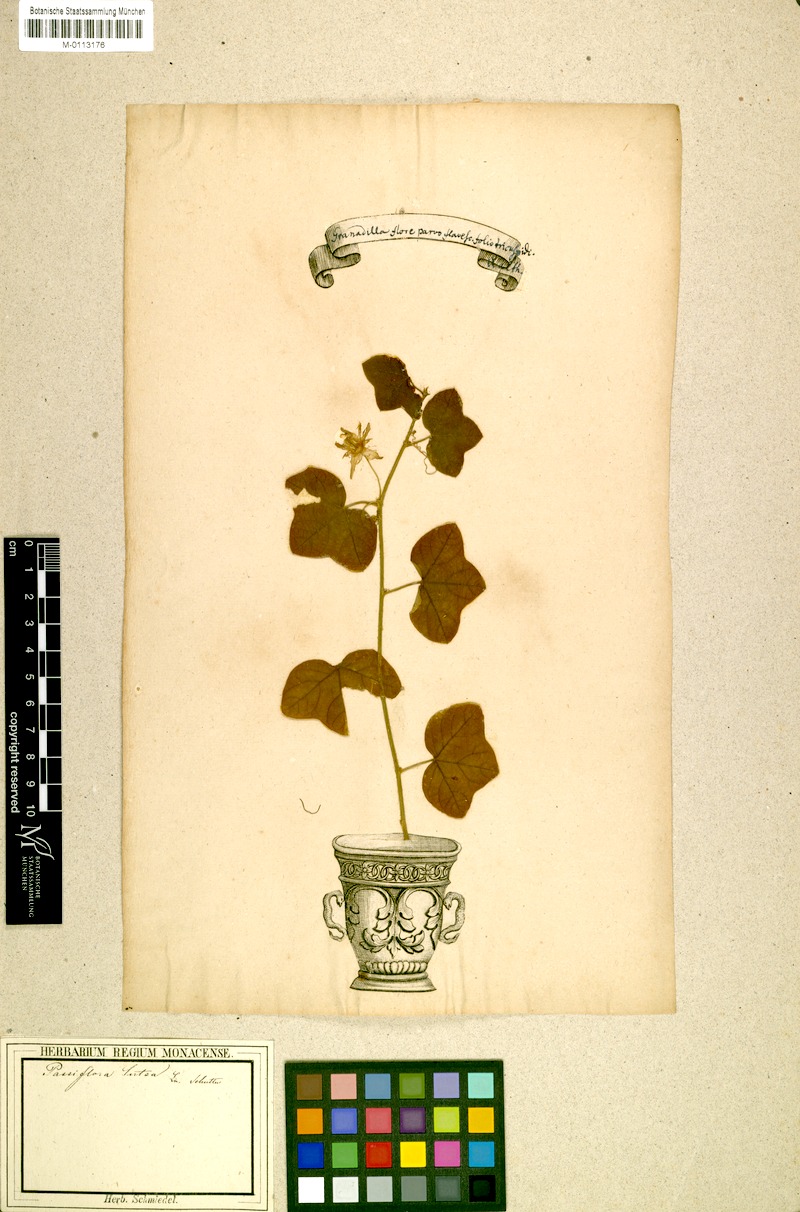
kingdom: Plantae
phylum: Tracheophyta
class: Magnoliopsida
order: Malpighiales
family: Passifloraceae
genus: Passiflora
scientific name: Passiflora lutea
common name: Yellow passionflower
